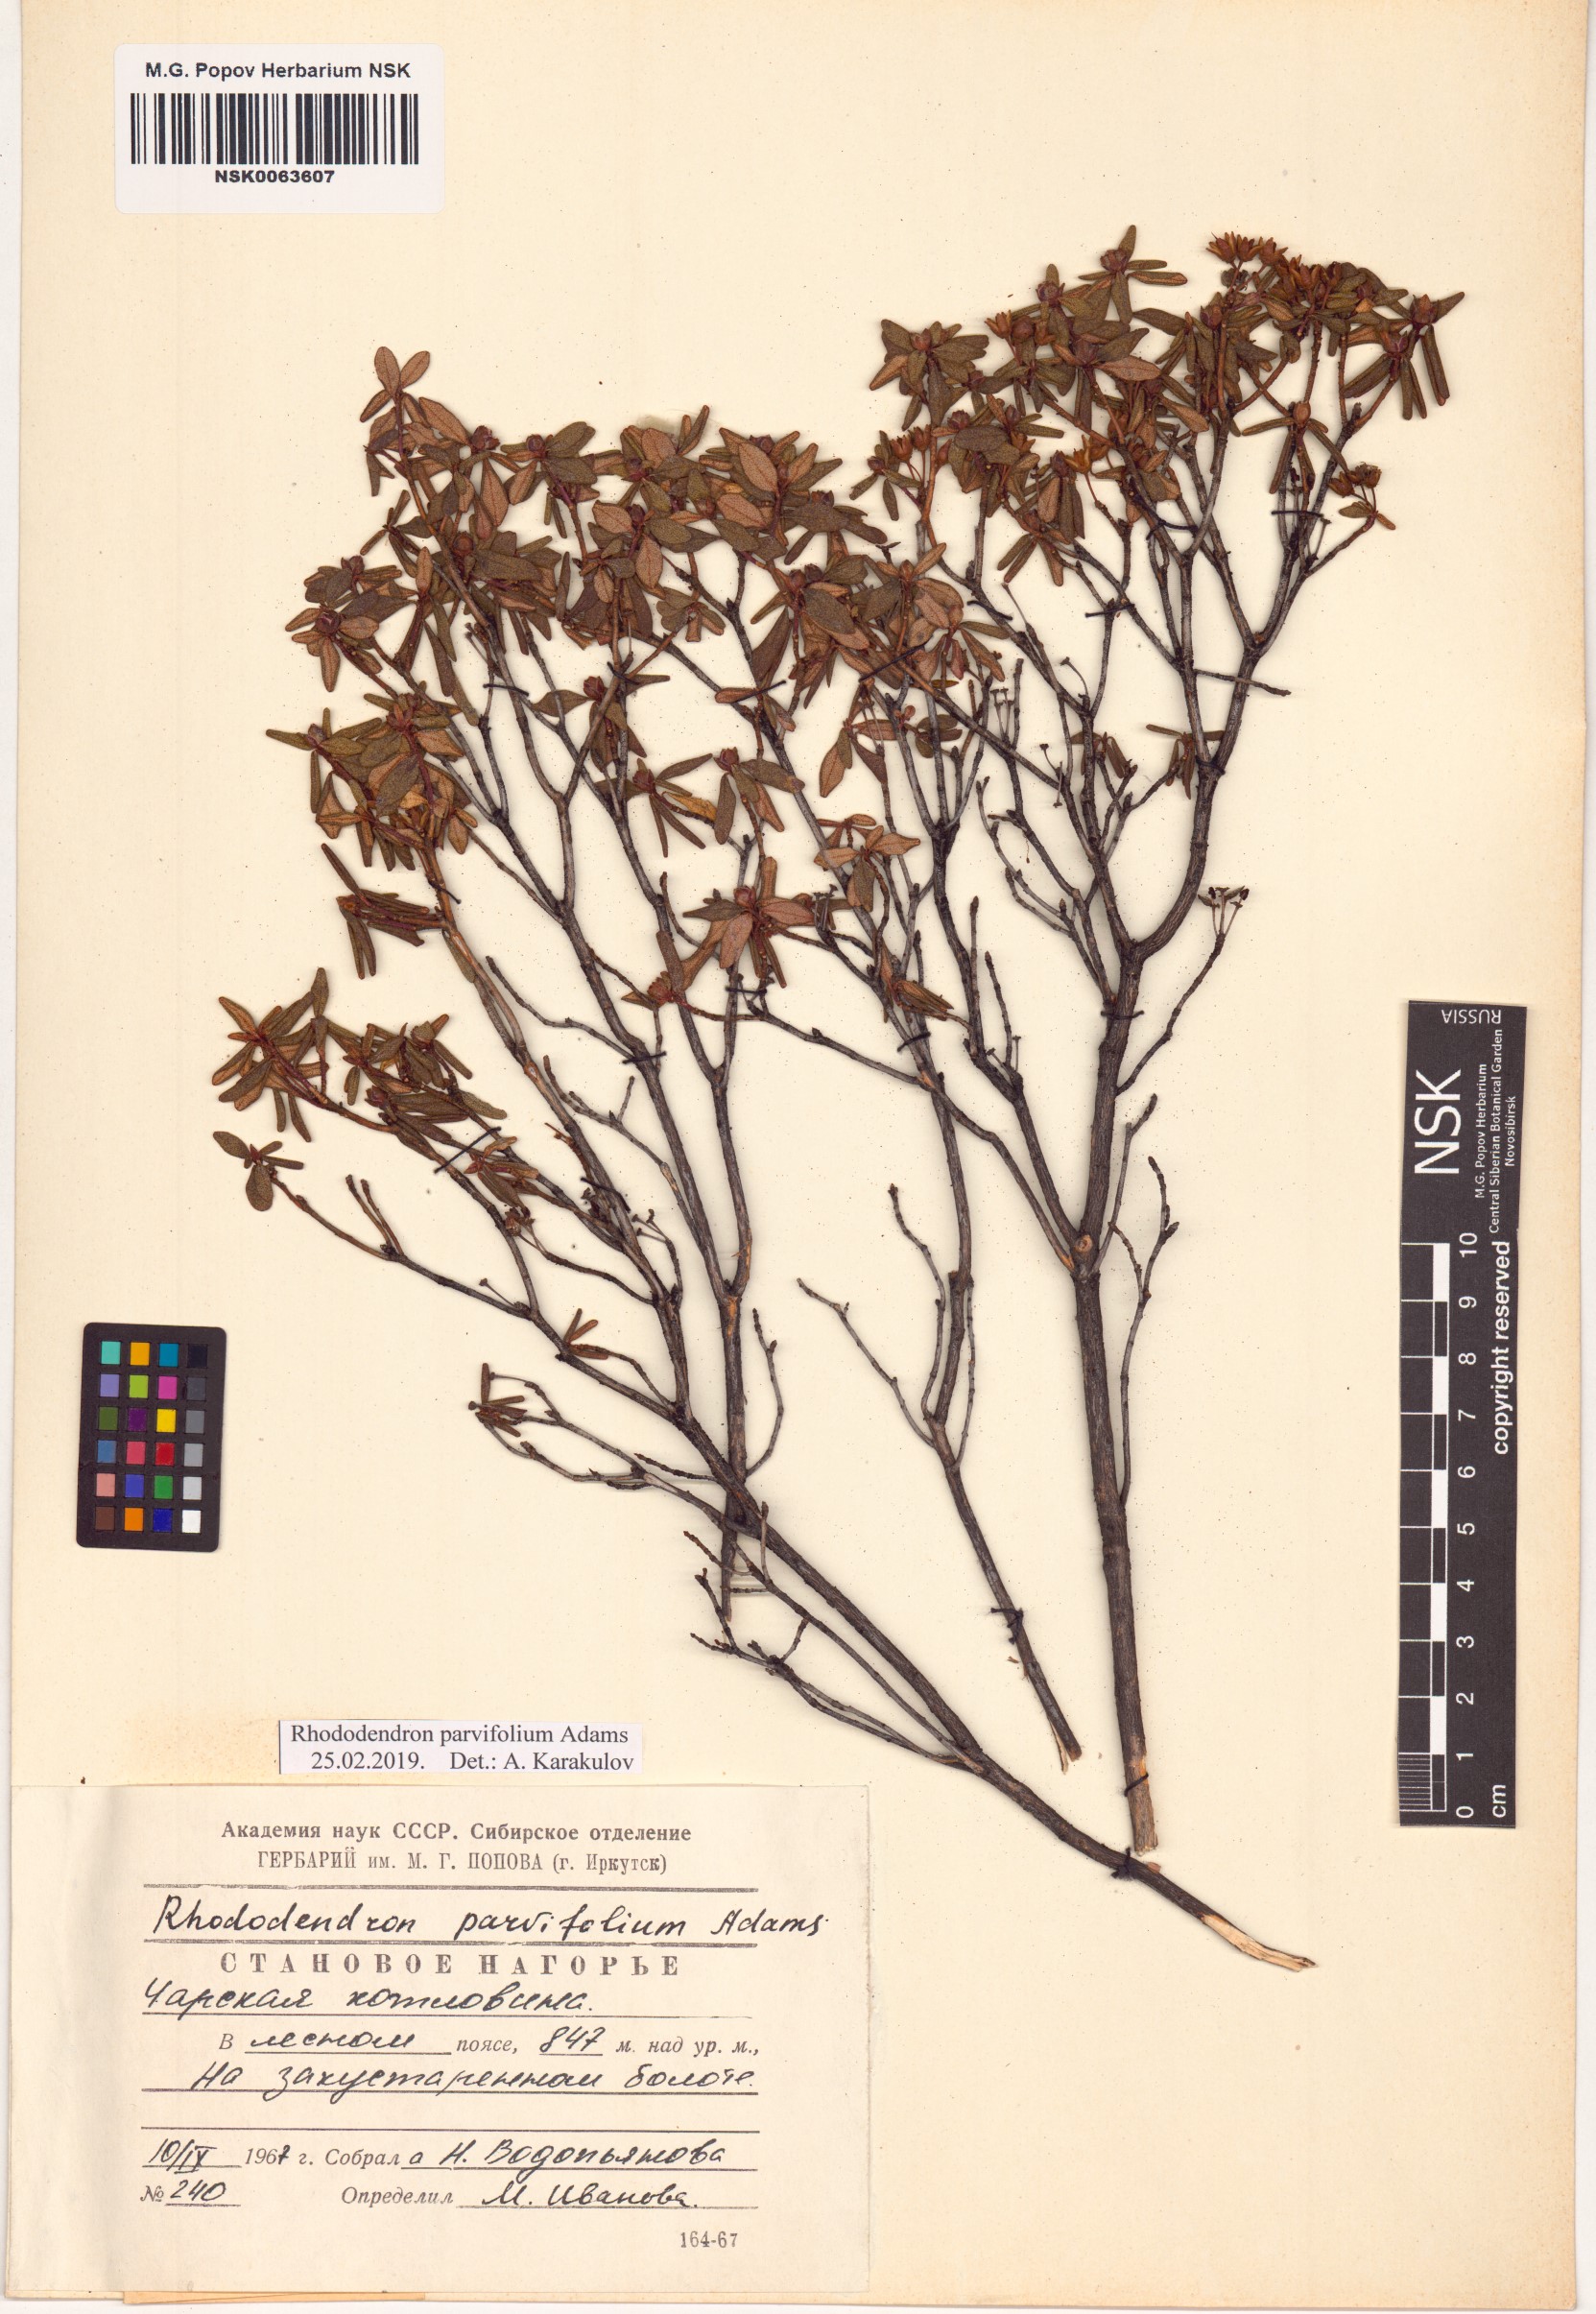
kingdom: Plantae
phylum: Tracheophyta
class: Magnoliopsida
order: Ericales
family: Ericaceae
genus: Rhododendron
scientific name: Rhododendron parvifolium
